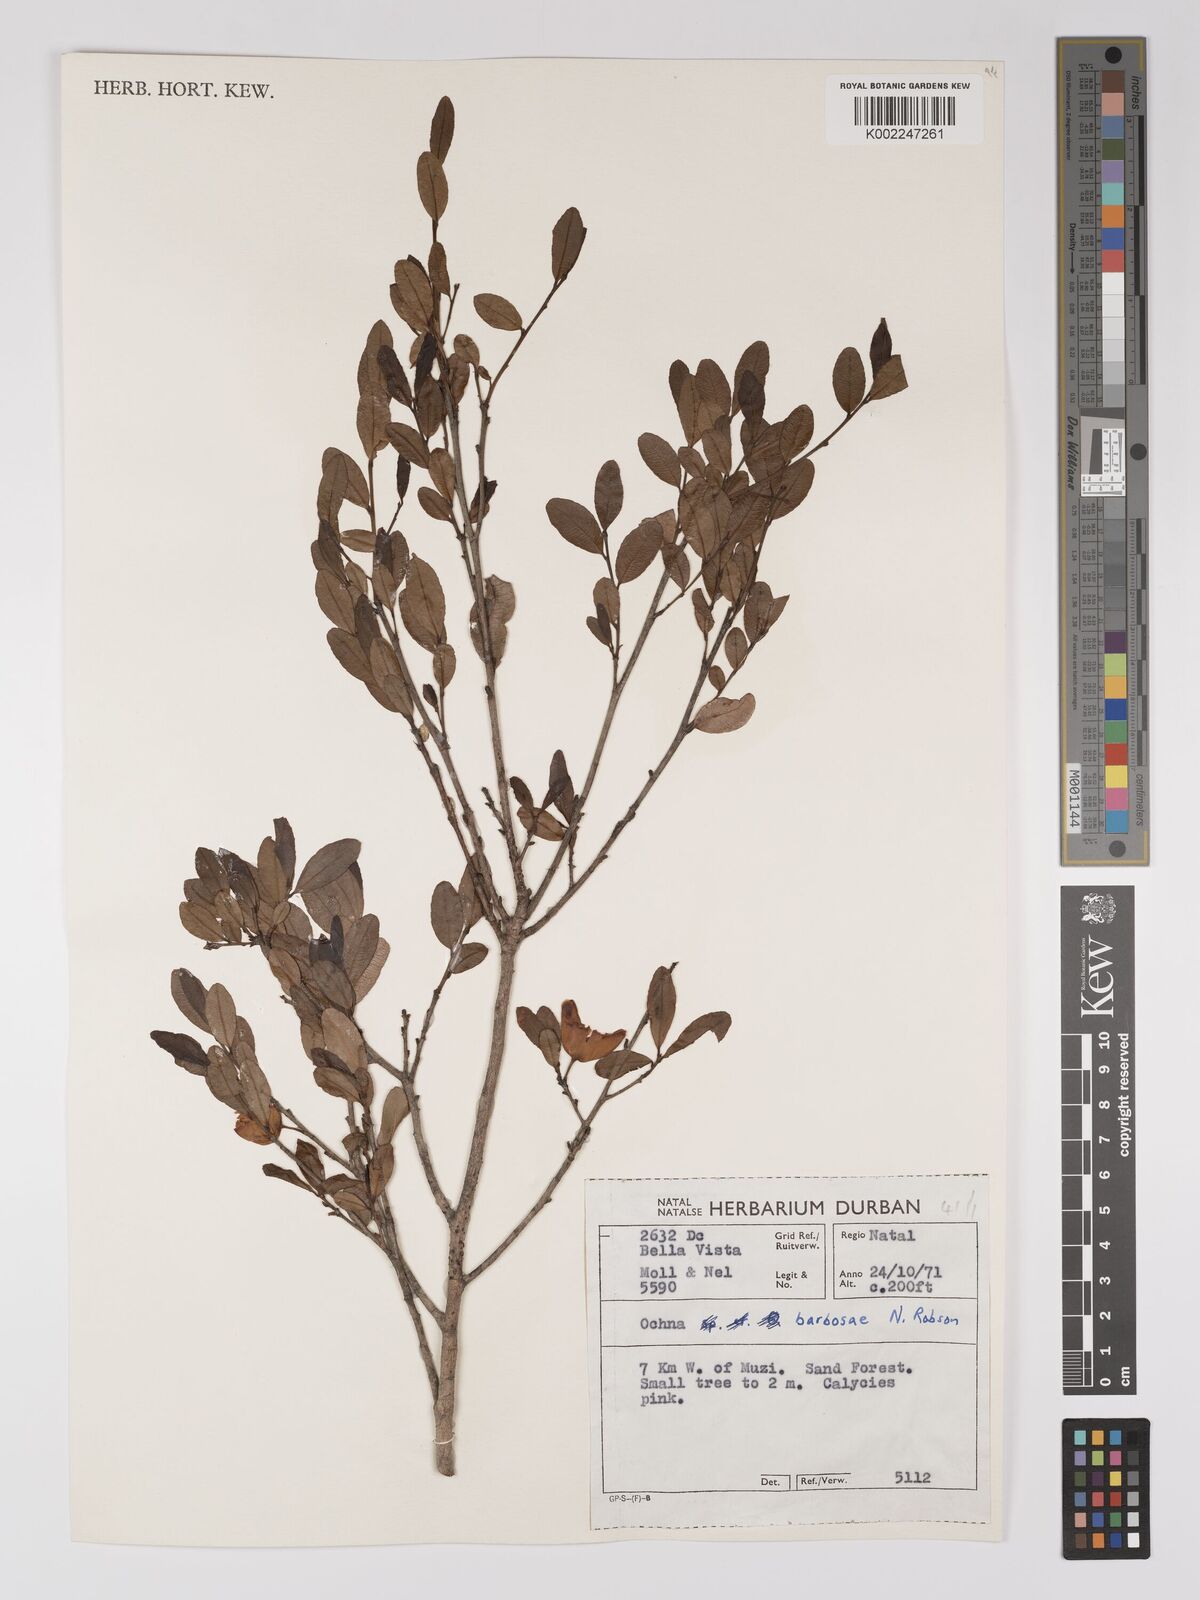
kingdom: Plantae
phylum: Tracheophyta
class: Magnoliopsida
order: Malpighiales
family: Ochnaceae
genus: Ochna
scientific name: Ochna barbosae
